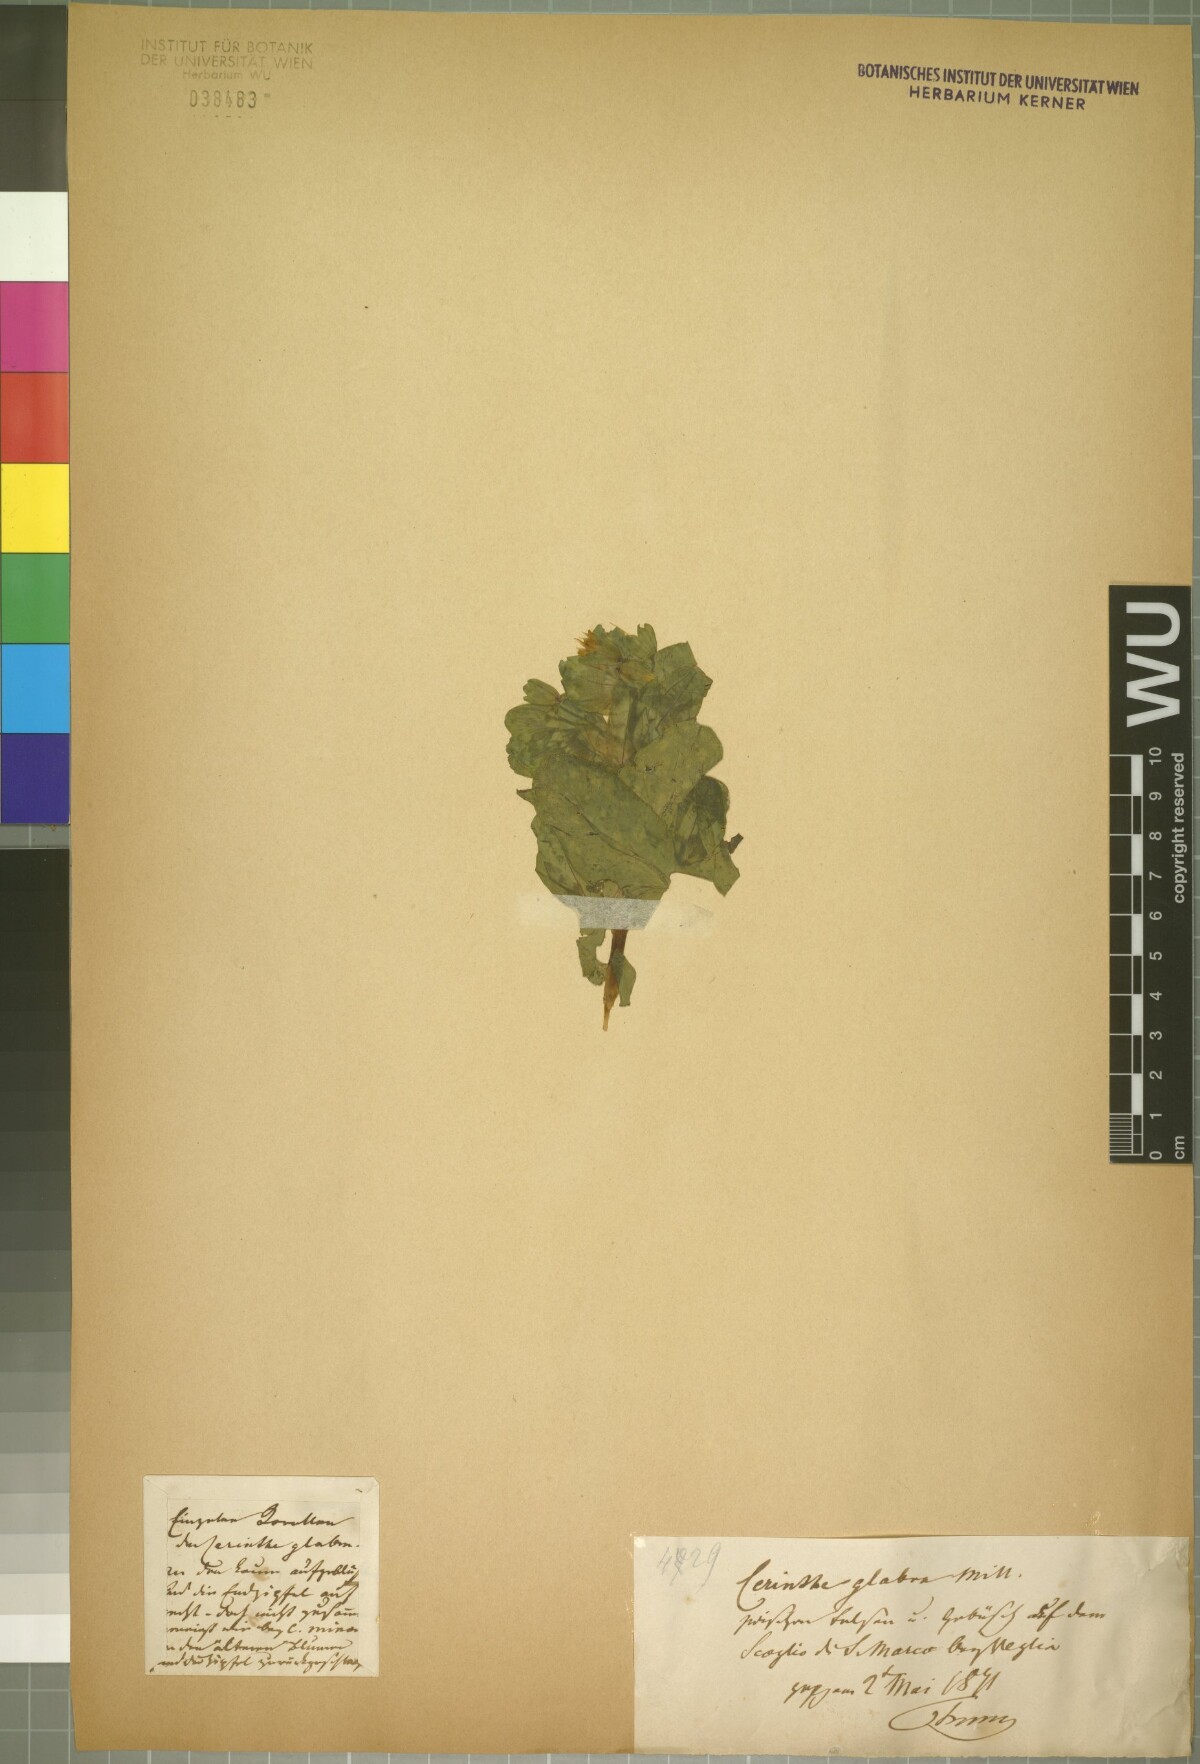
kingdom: Plantae
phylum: Tracheophyta
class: Magnoliopsida
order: Boraginales
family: Boraginaceae
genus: Cerinthe
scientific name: Cerinthe glabra
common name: Smooth honeywort
